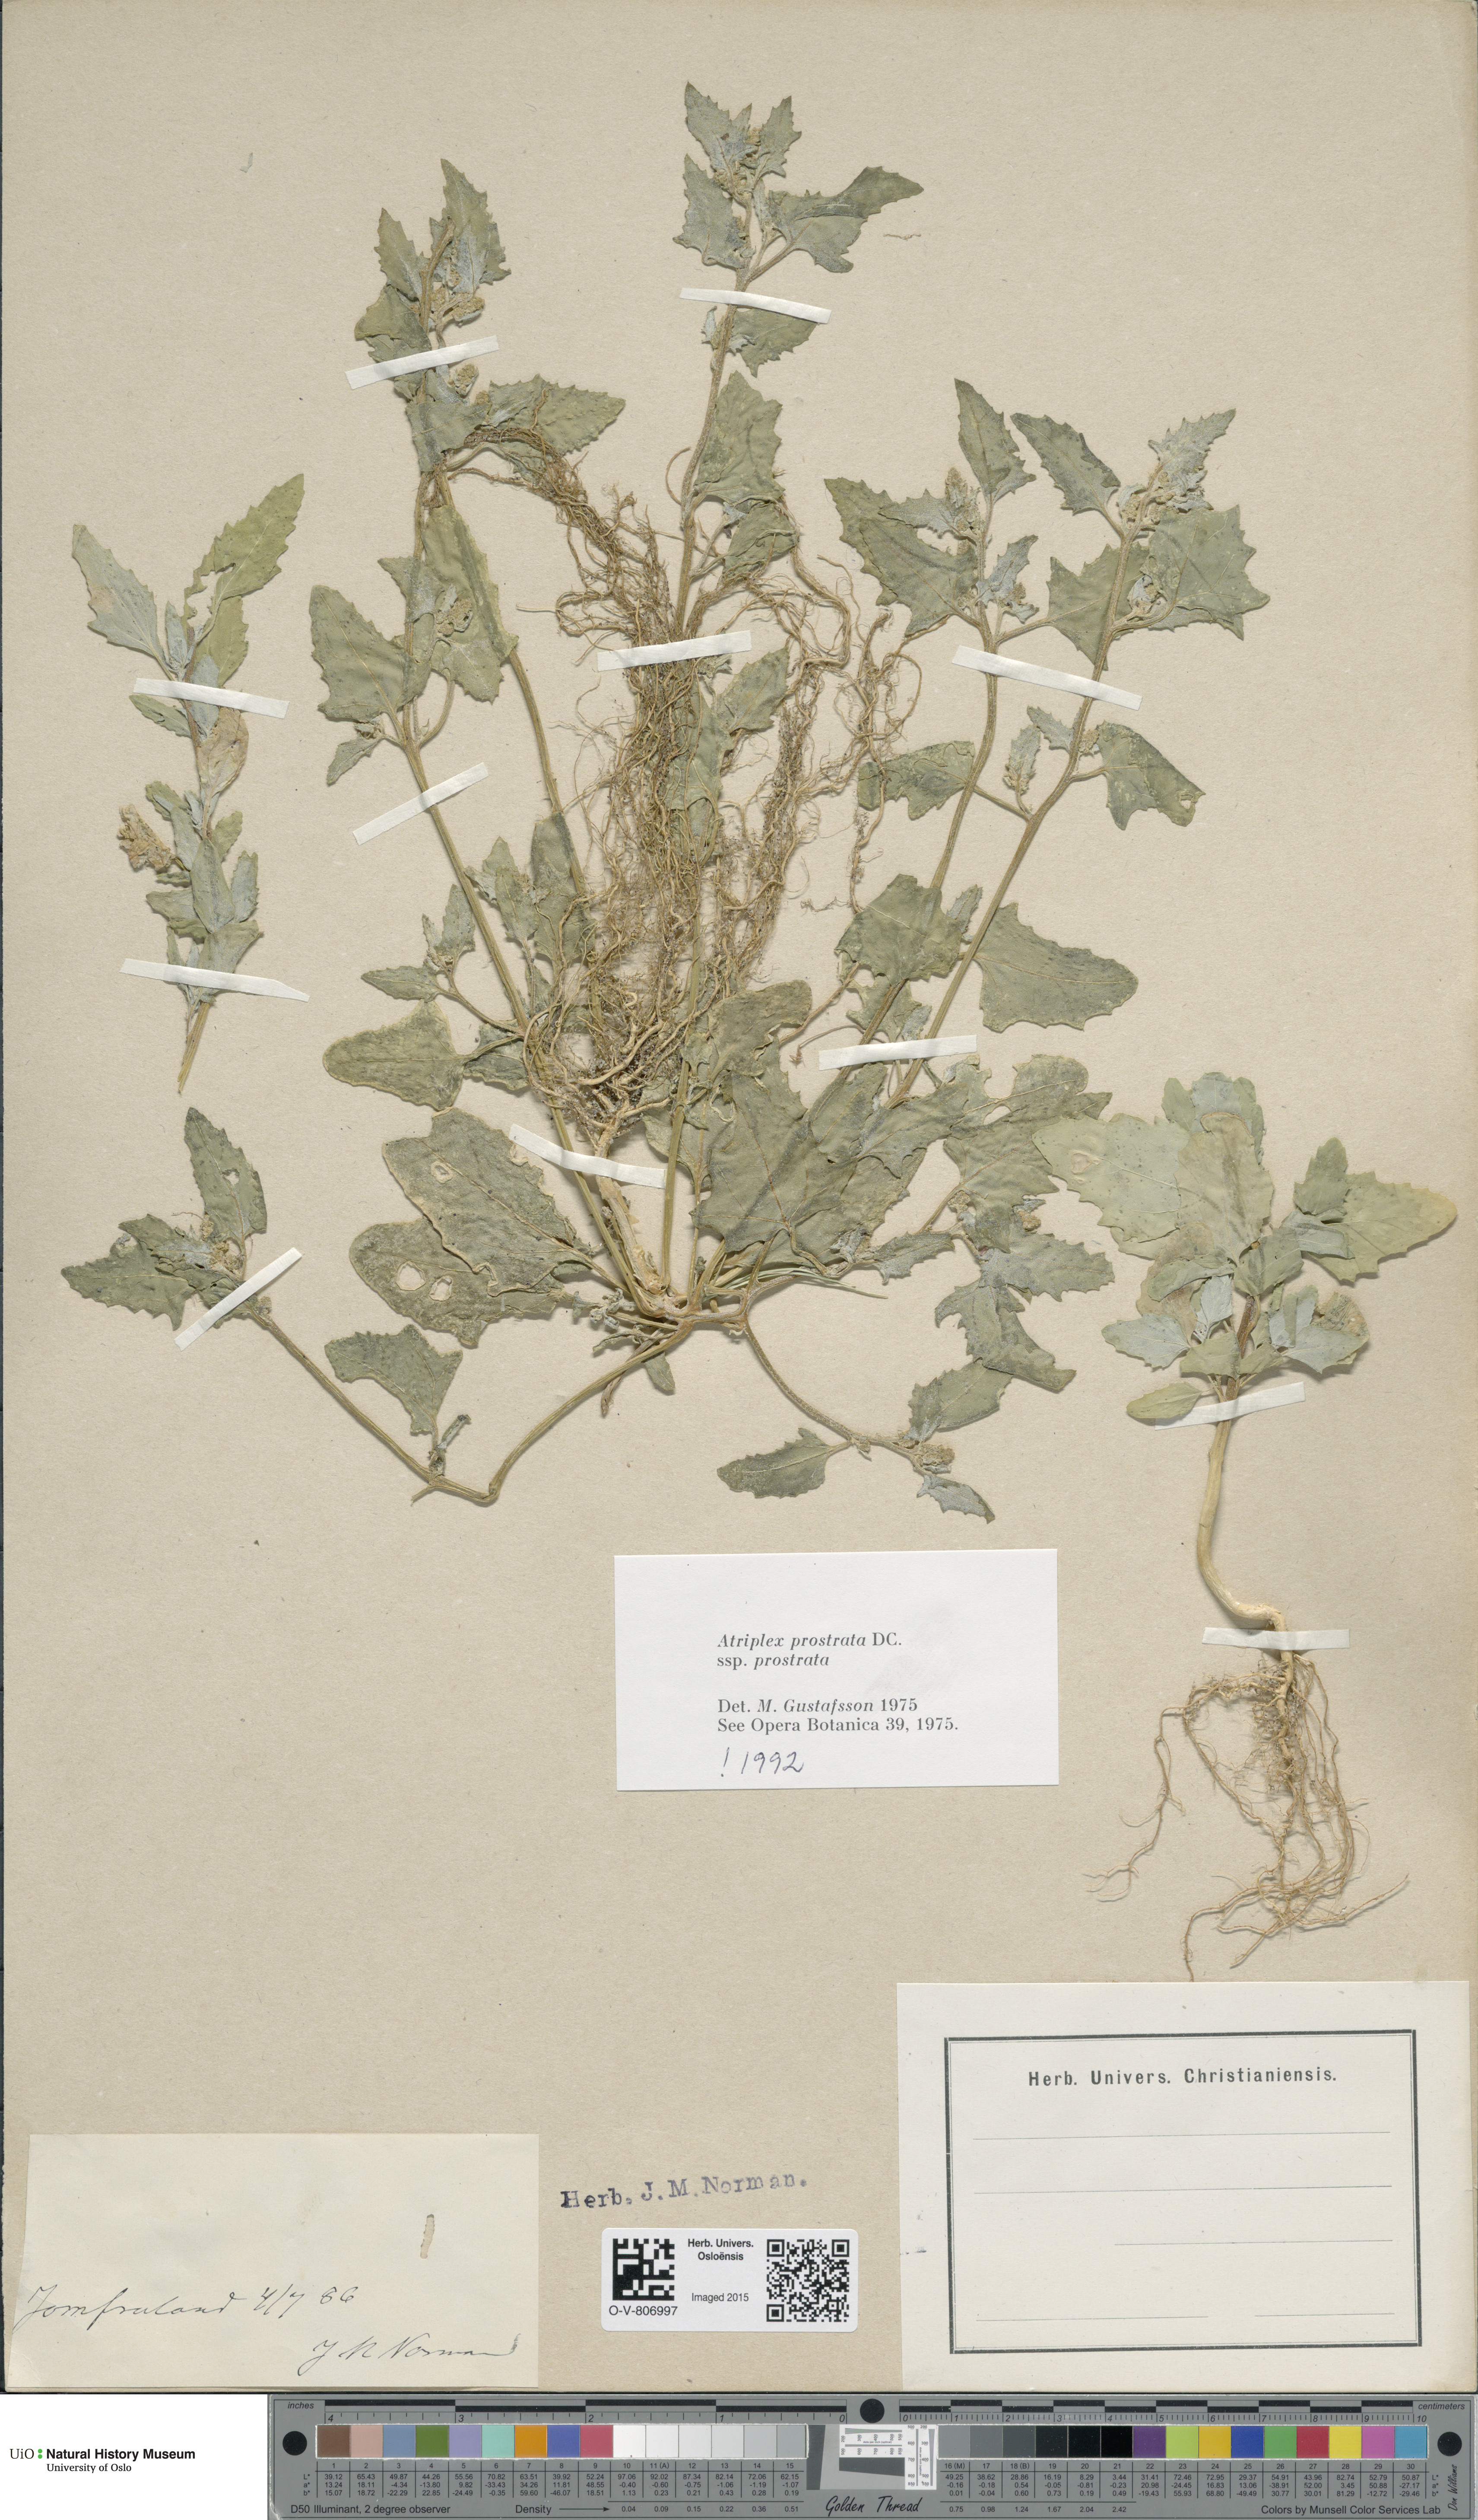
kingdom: Plantae
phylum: Tracheophyta
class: Magnoliopsida
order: Caryophyllales
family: Amaranthaceae
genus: Atriplex
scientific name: Atriplex prostrata
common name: Spear-leaved orache
